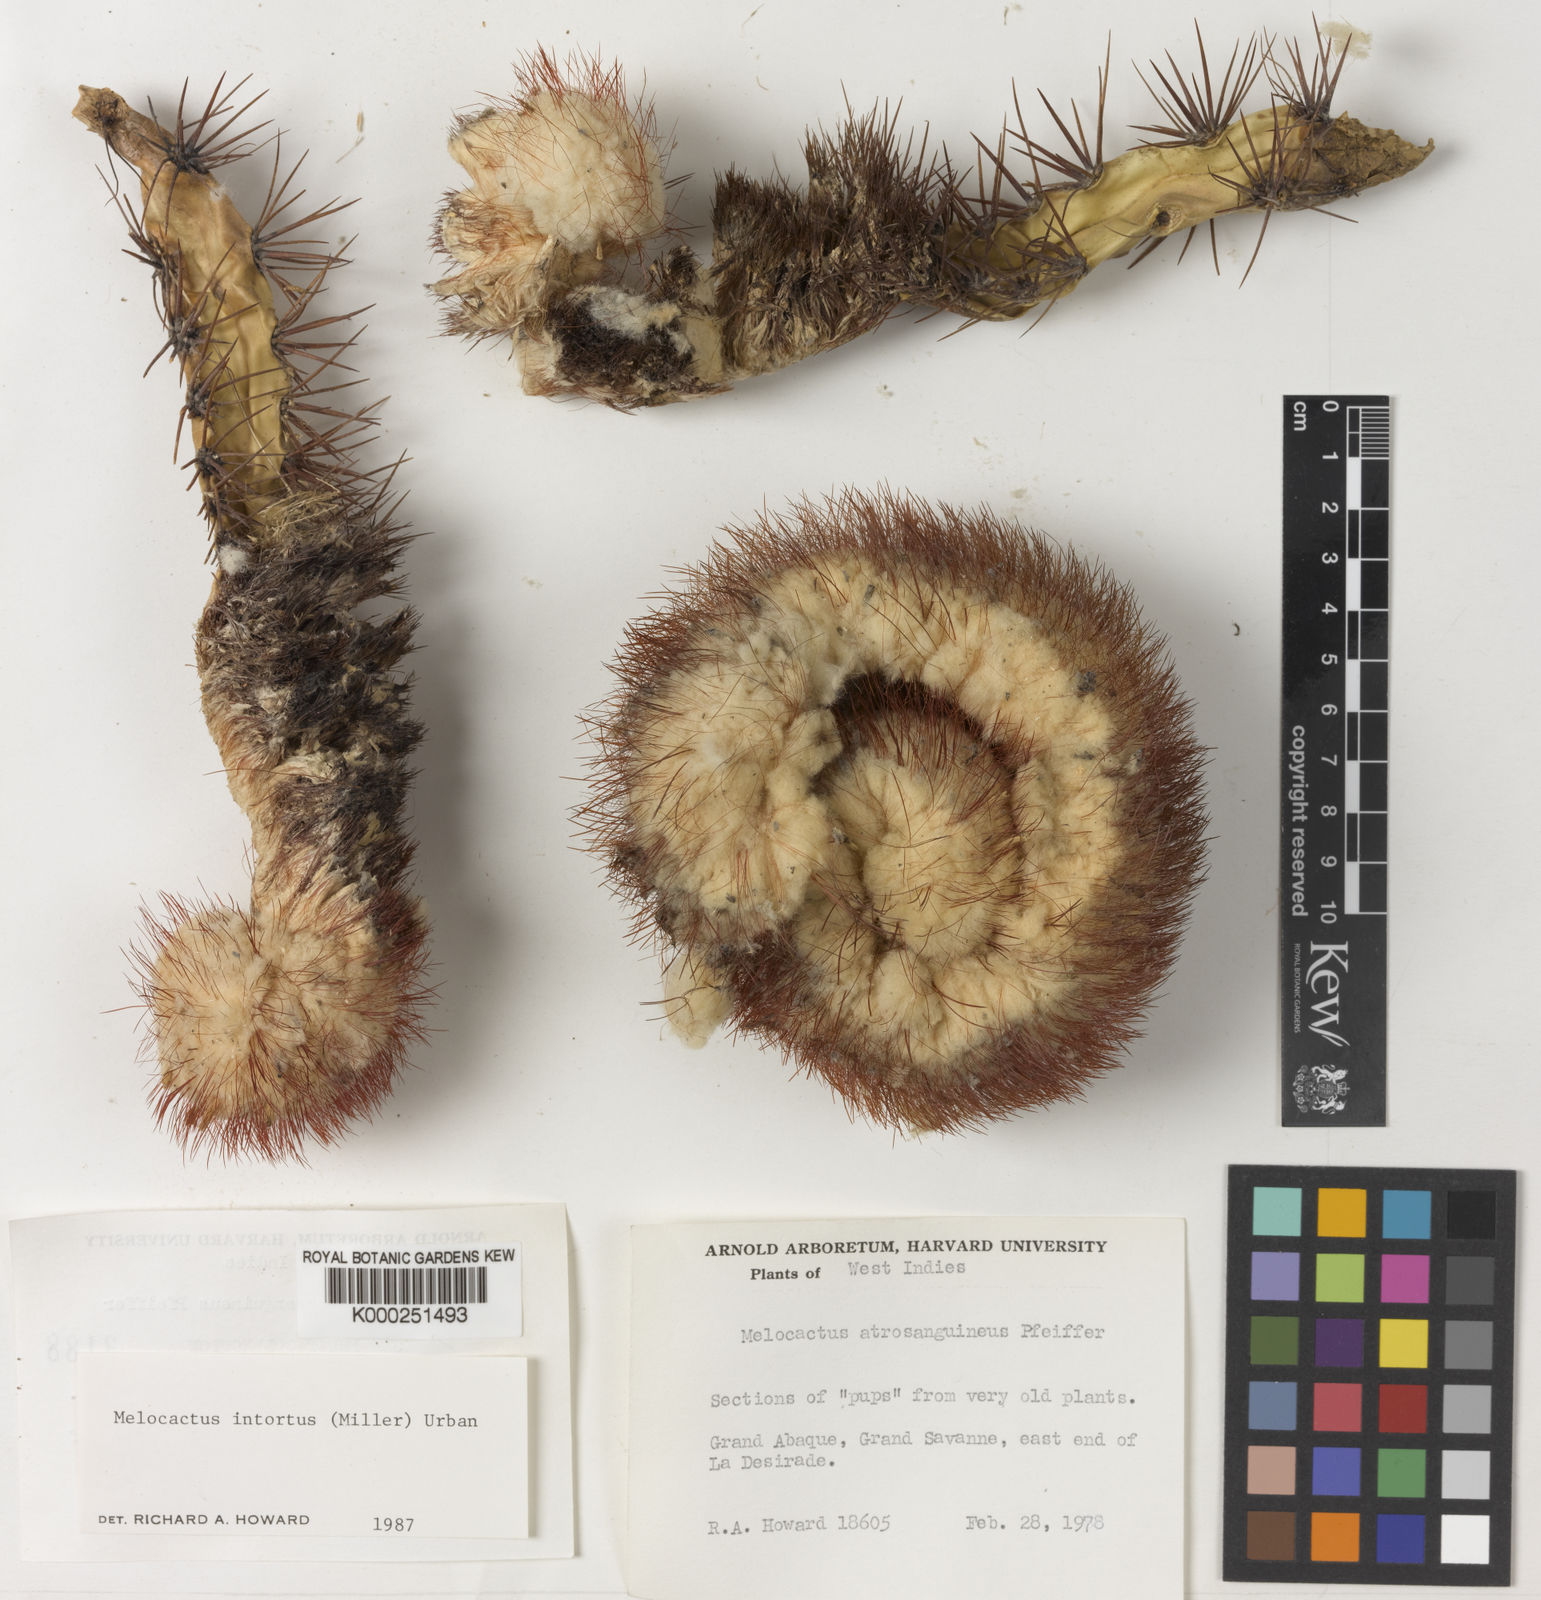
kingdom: Plantae
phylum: Tracheophyta
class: Magnoliopsida
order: Caryophyllales
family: Cactaceae
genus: Melocactus
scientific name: Melocactus intortus
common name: Barrel cactus
